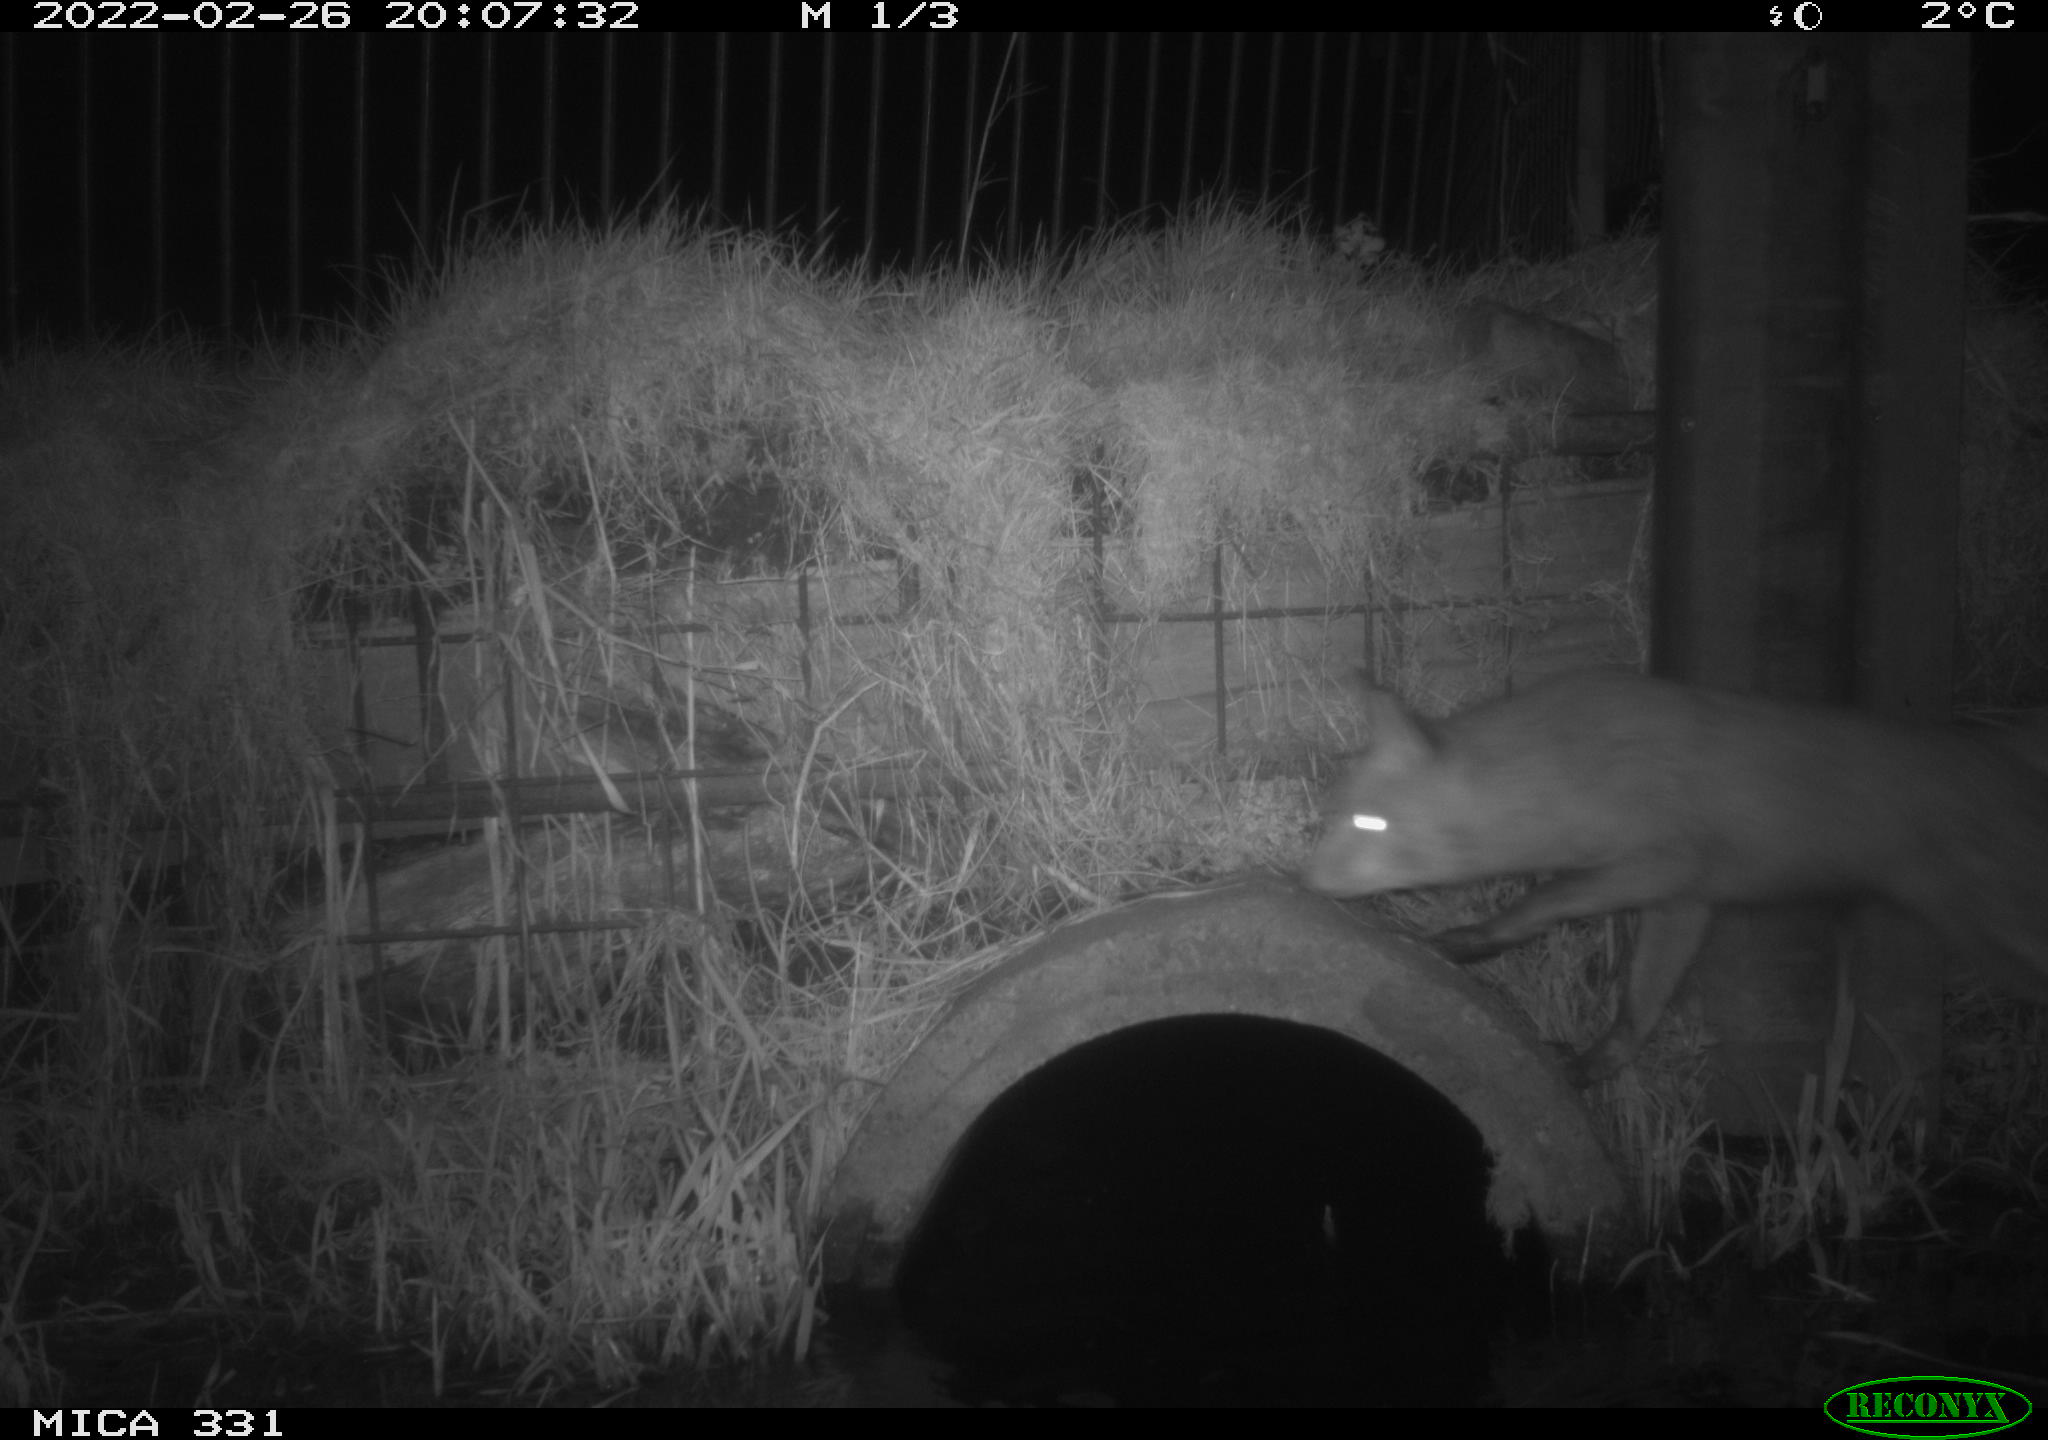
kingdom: Animalia
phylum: Chordata
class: Mammalia
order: Carnivora
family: Canidae
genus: Vulpes
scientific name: Vulpes vulpes
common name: Red fox
